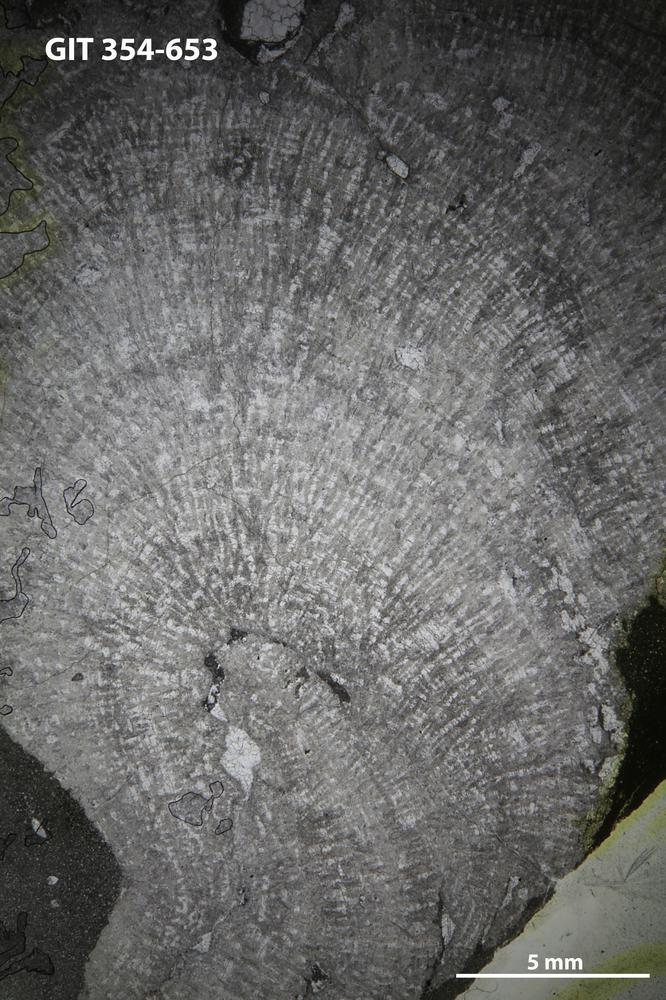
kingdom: Animalia
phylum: Porifera
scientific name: Porifera
